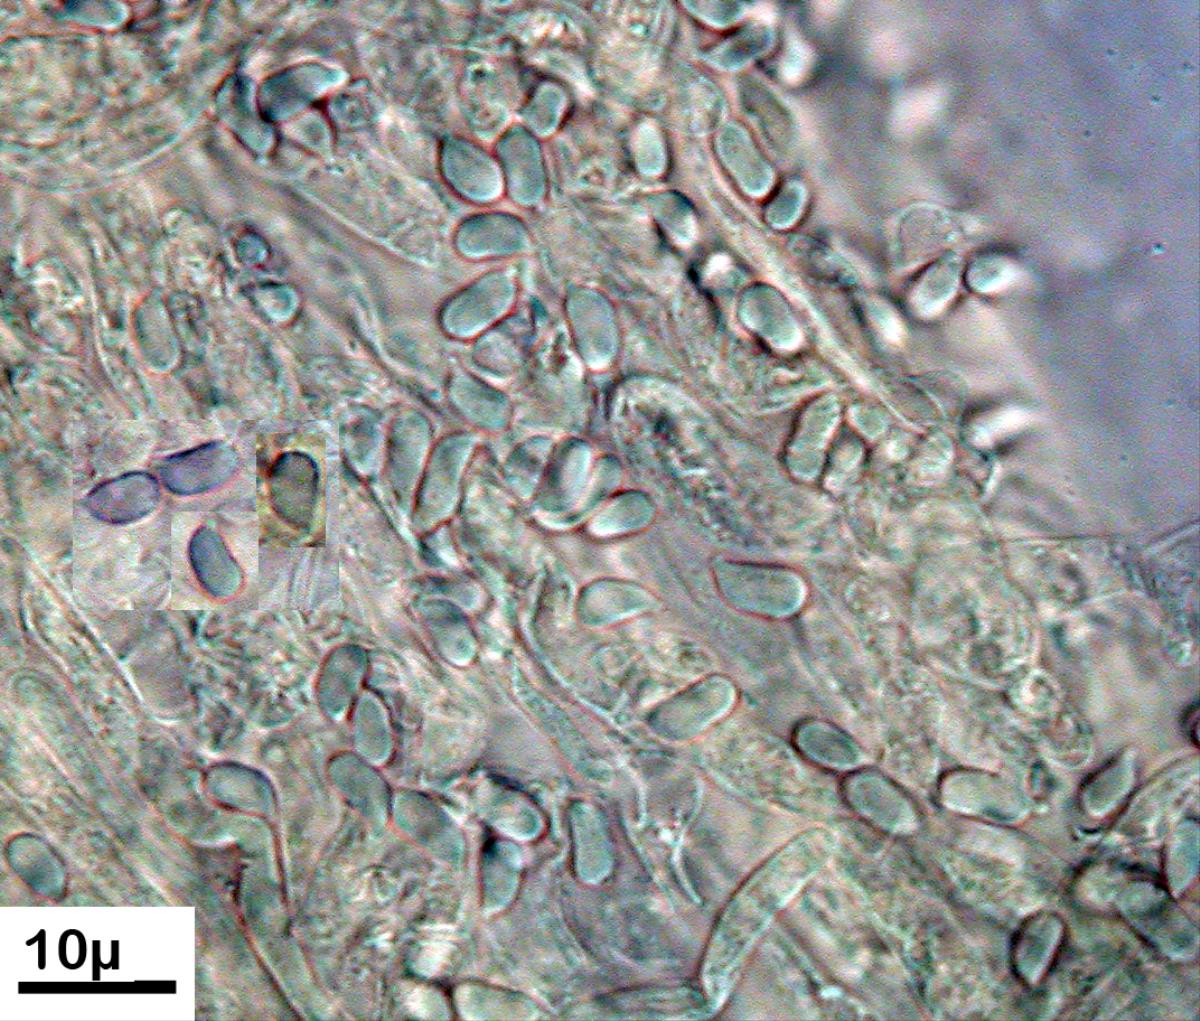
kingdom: Fungi
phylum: Basidiomycota
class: Agaricomycetes
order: Agaricales
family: Typhulaceae
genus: Typhula
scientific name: Typhula
